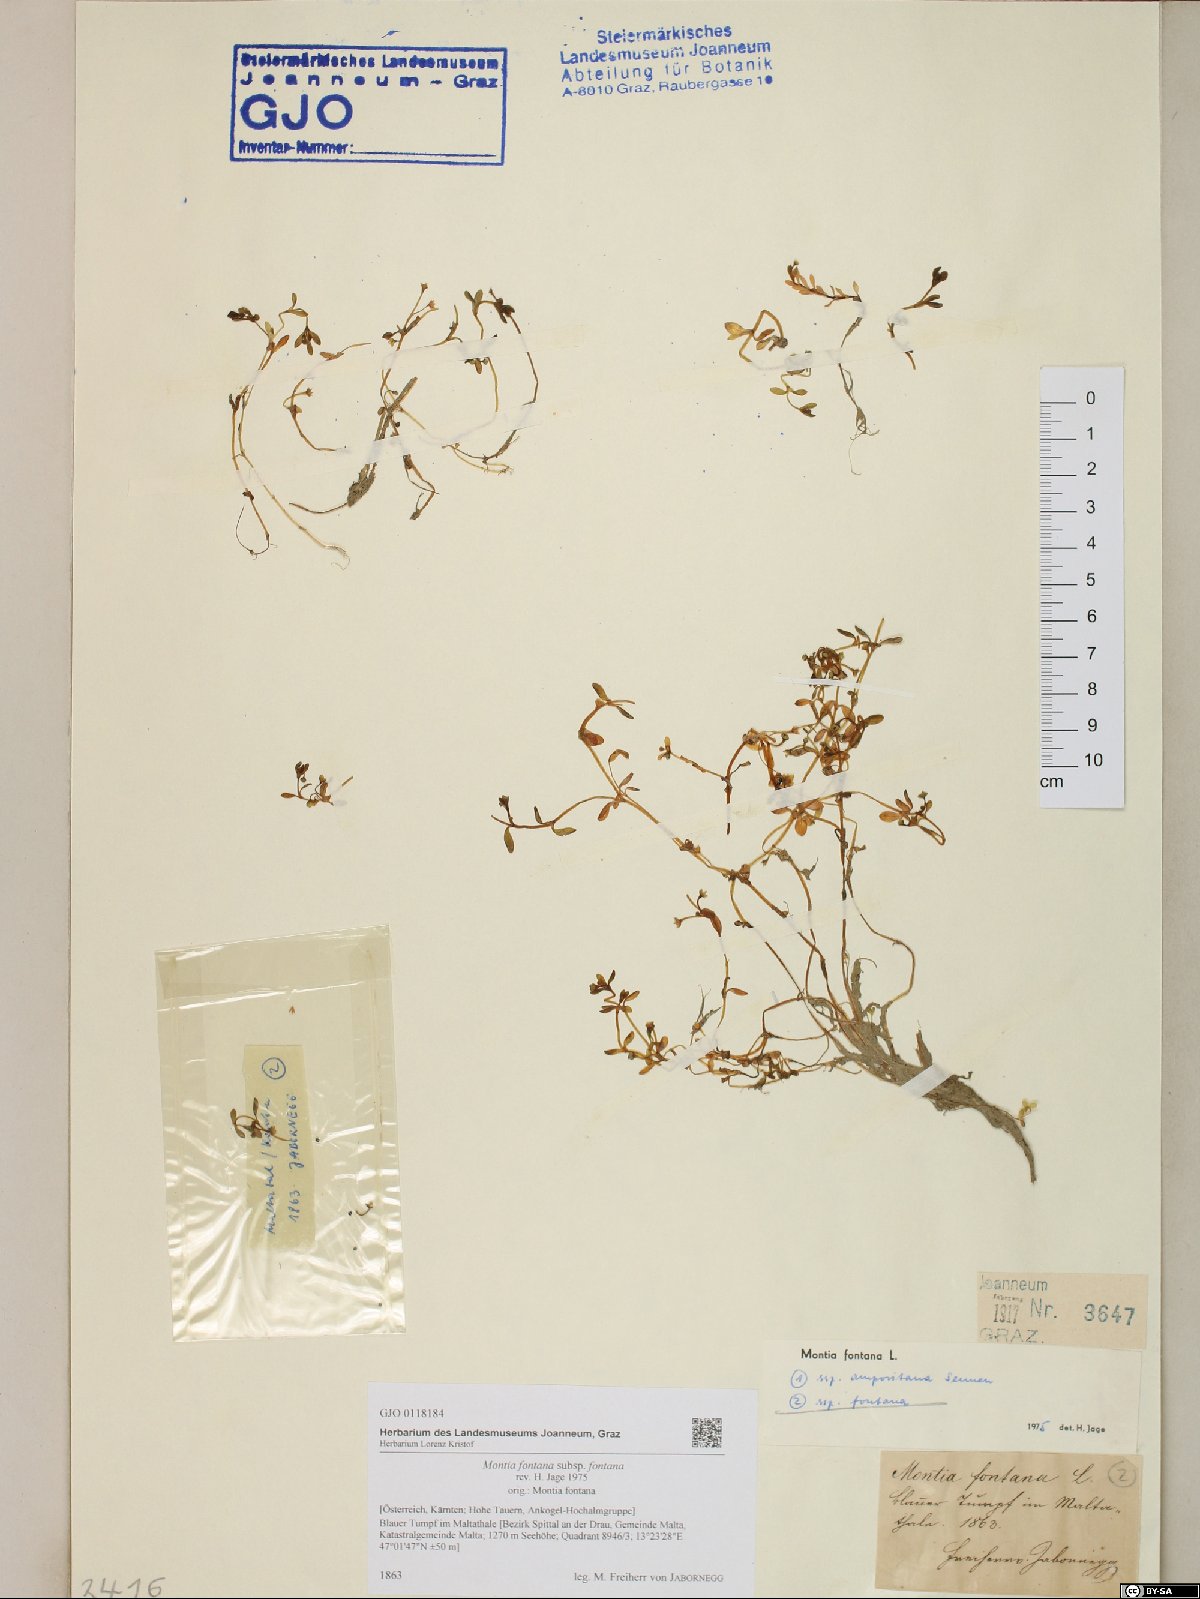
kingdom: Plantae
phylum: Tracheophyta
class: Magnoliopsida
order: Caryophyllales
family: Montiaceae
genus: Montia
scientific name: Montia fontana
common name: Blinks
